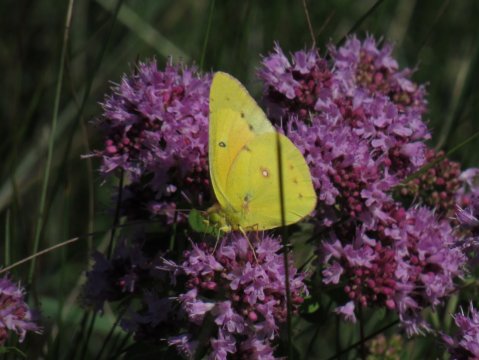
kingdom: Animalia
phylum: Arthropoda
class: Insecta
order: Lepidoptera
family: Pieridae
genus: Colias
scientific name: Colias eurytheme
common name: Orange Sulphur
